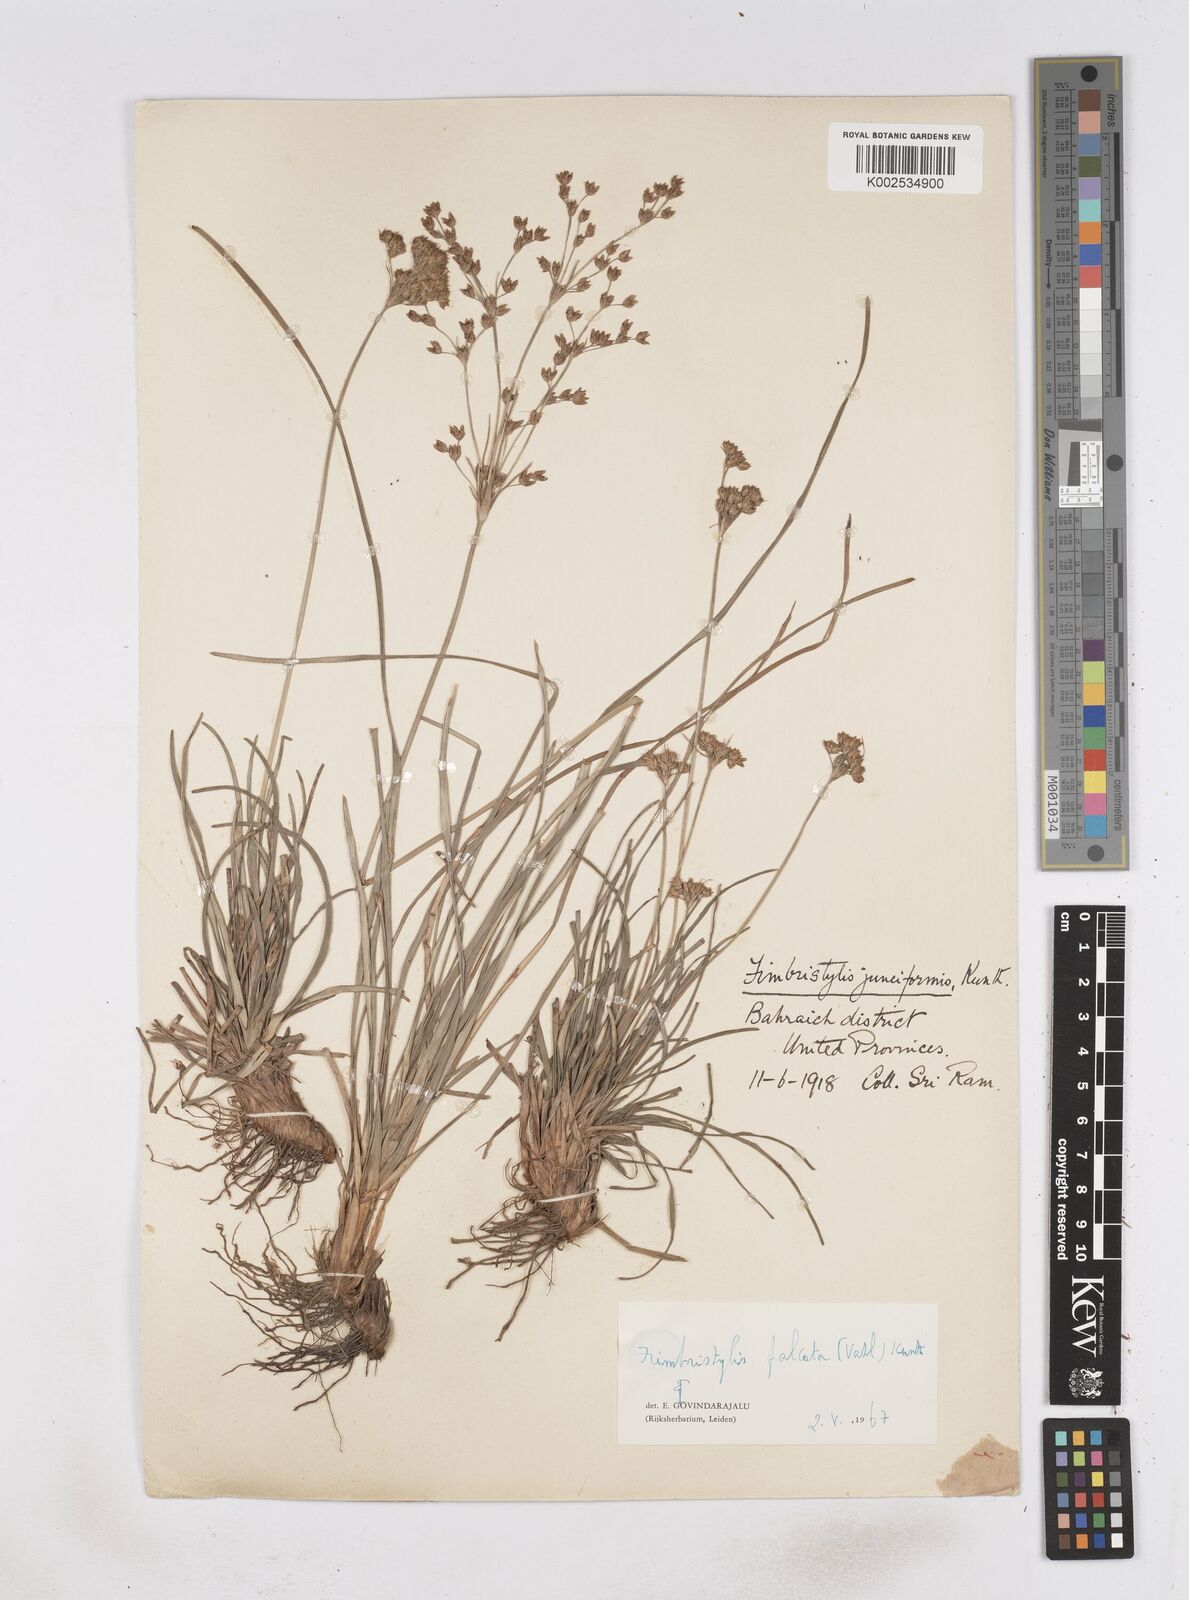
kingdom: Plantae
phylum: Tracheophyta
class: Liliopsida
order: Poales
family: Cyperaceae
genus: Fimbristylis
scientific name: Fimbristylis falcata
